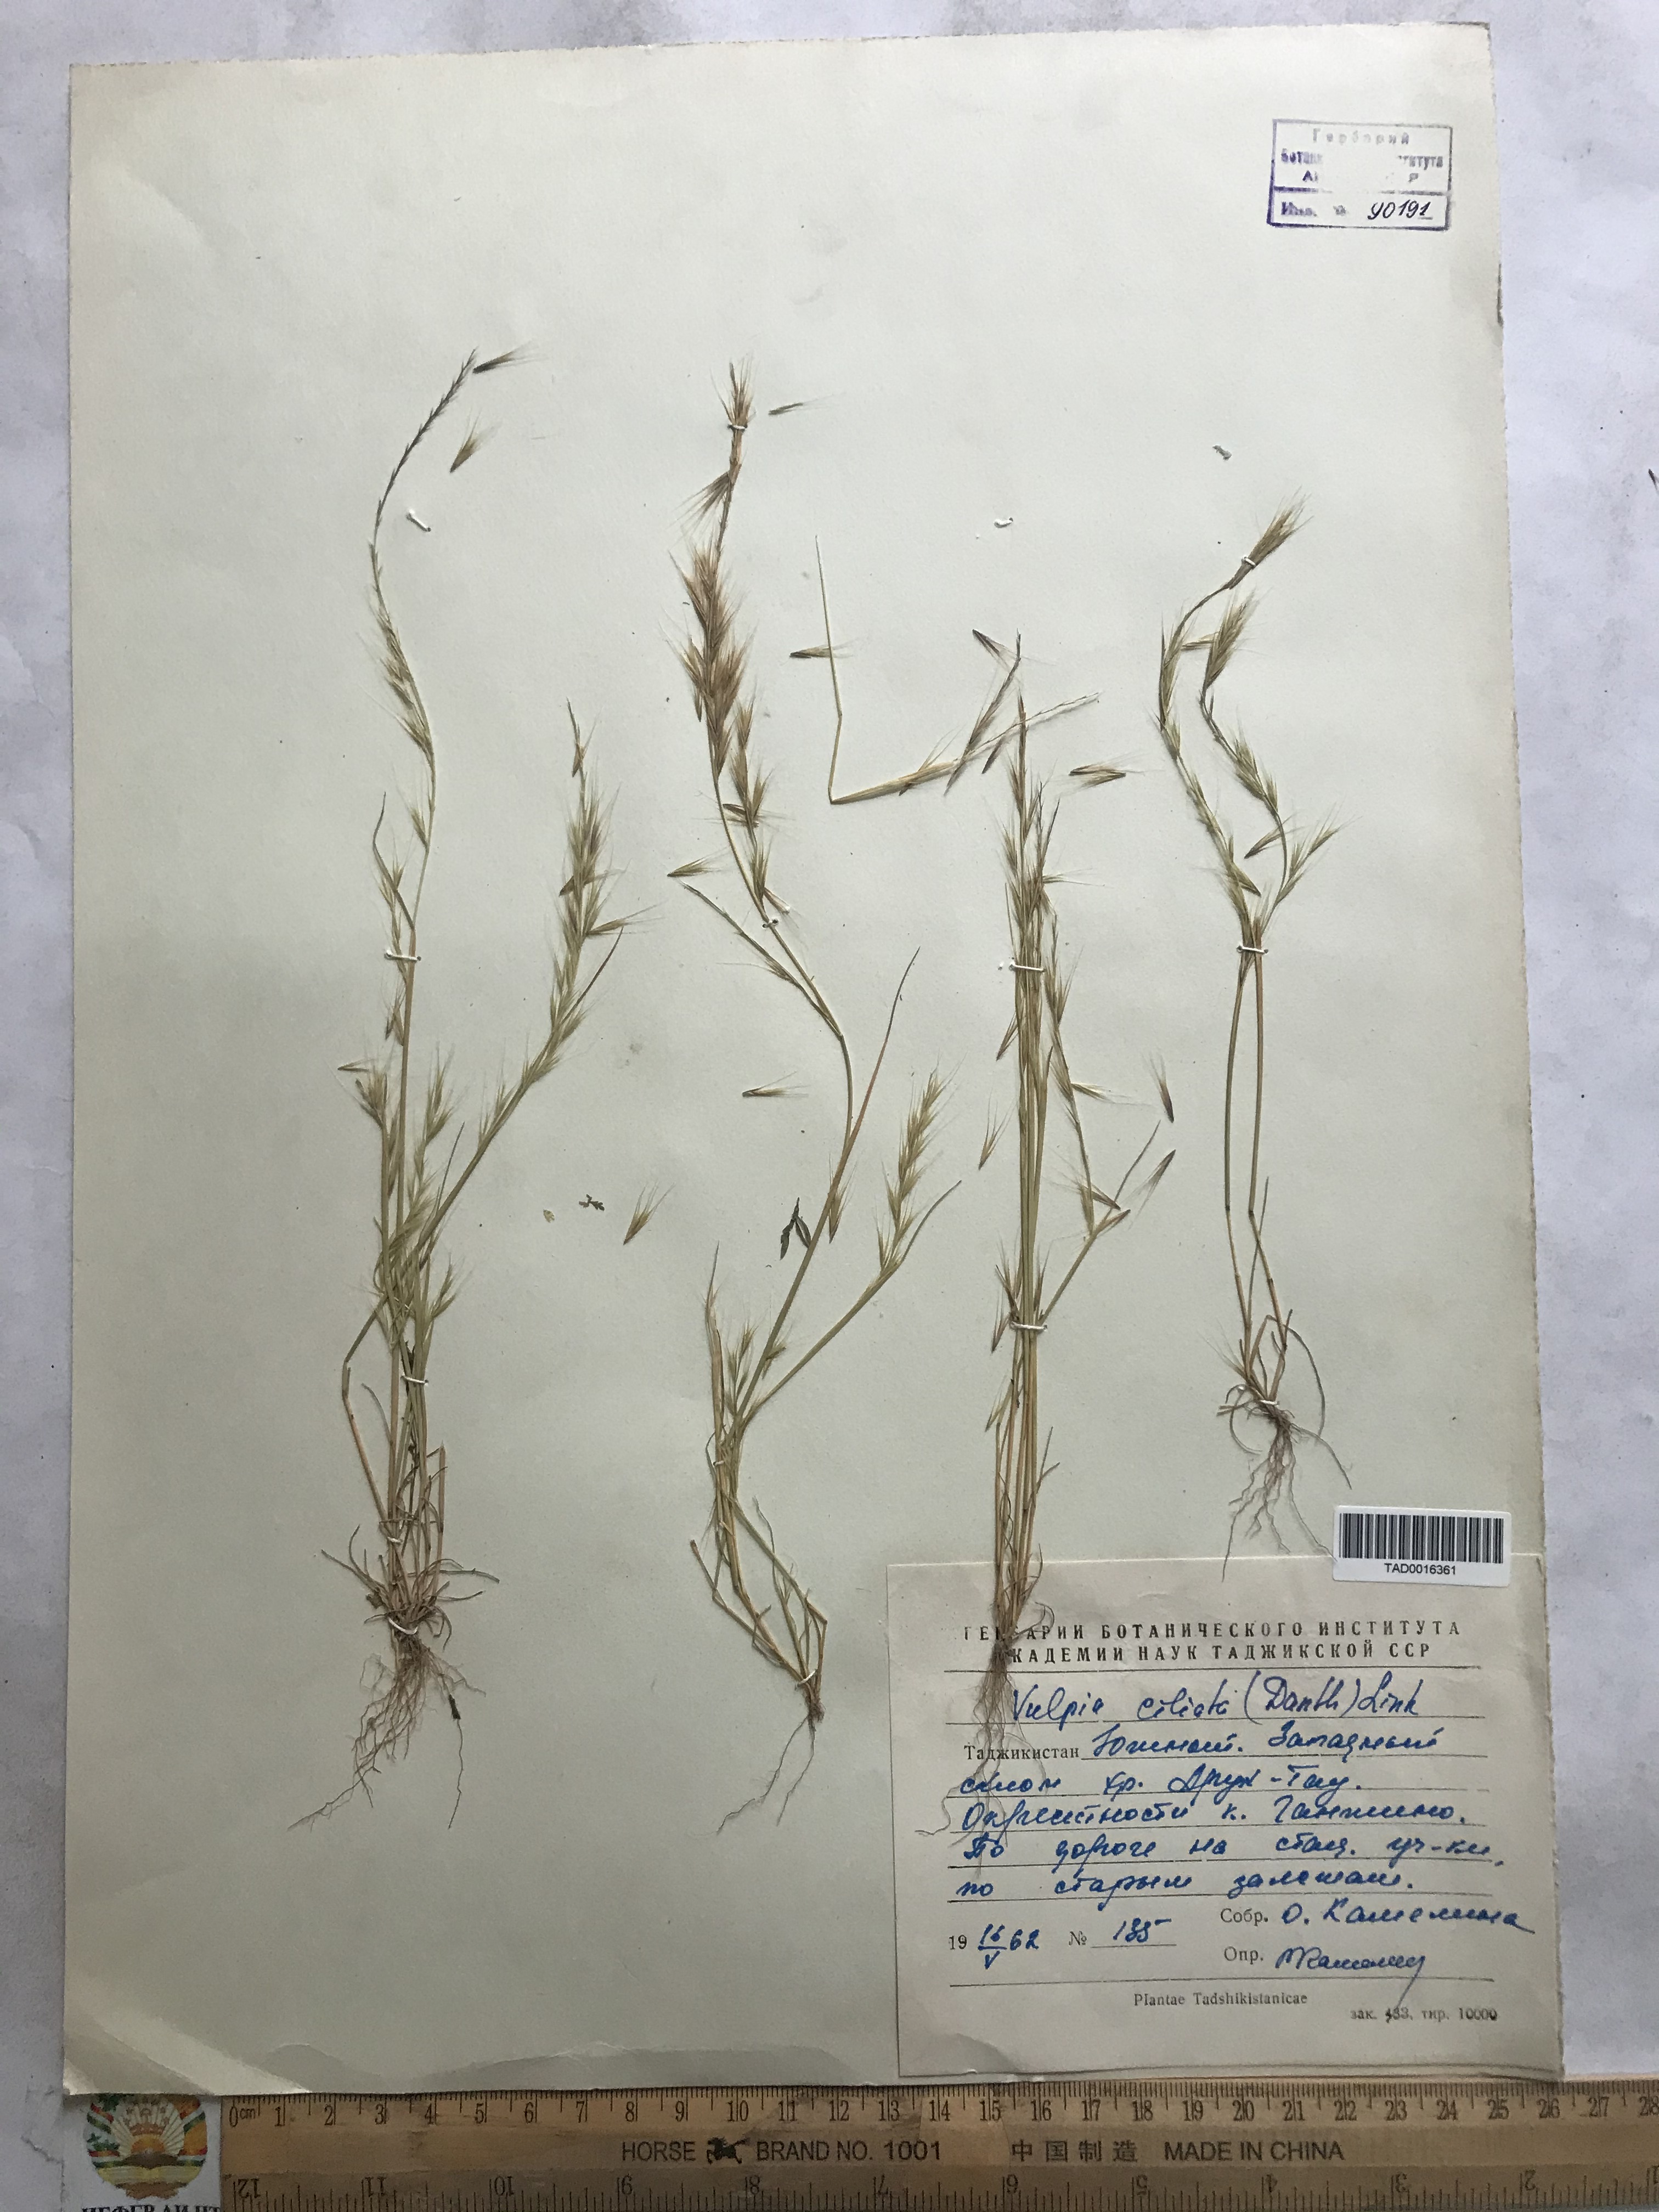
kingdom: Plantae
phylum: Tracheophyta
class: Liliopsida
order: Poales
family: Poaceae
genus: Festuca
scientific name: Festuca ambigua
